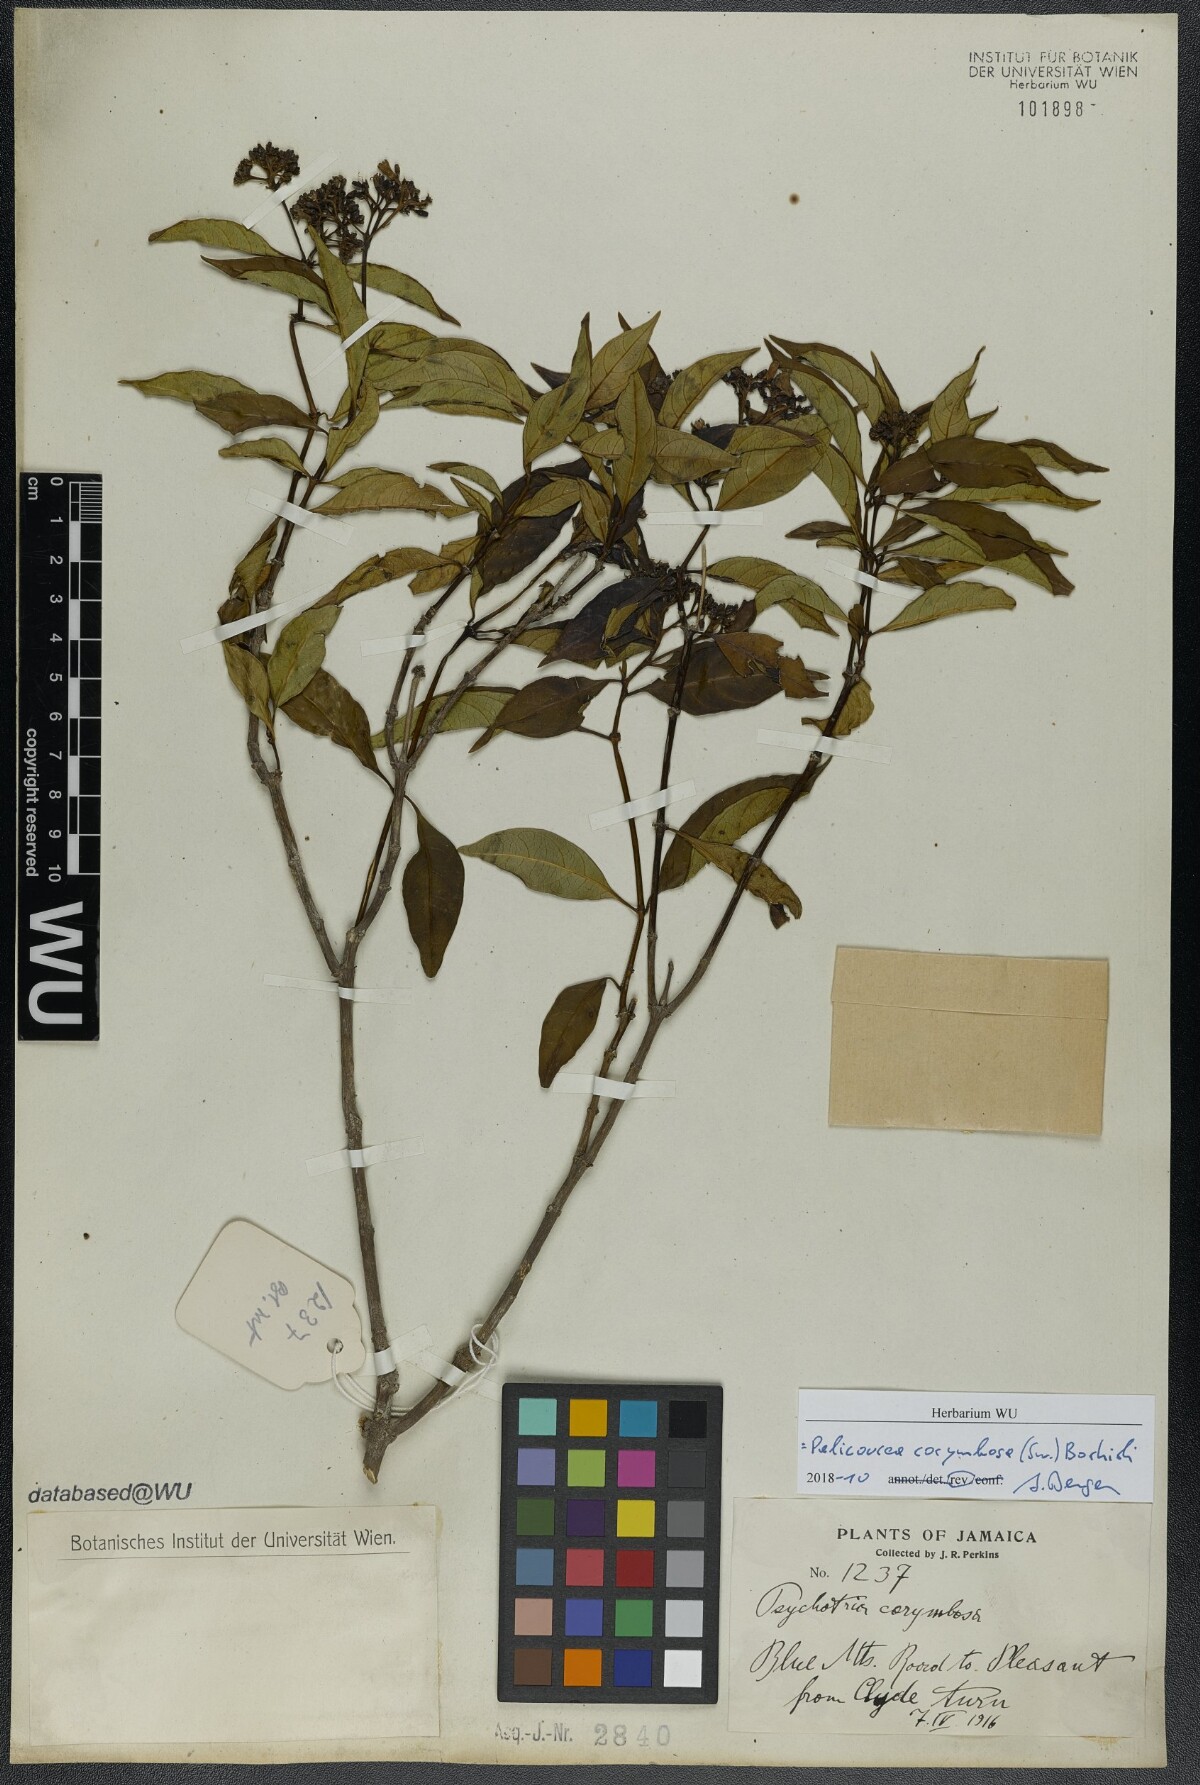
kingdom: Plantae
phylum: Tracheophyta
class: Magnoliopsida
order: Gentianales
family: Rubiaceae
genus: Palicourea
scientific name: Palicourea corymbosa
